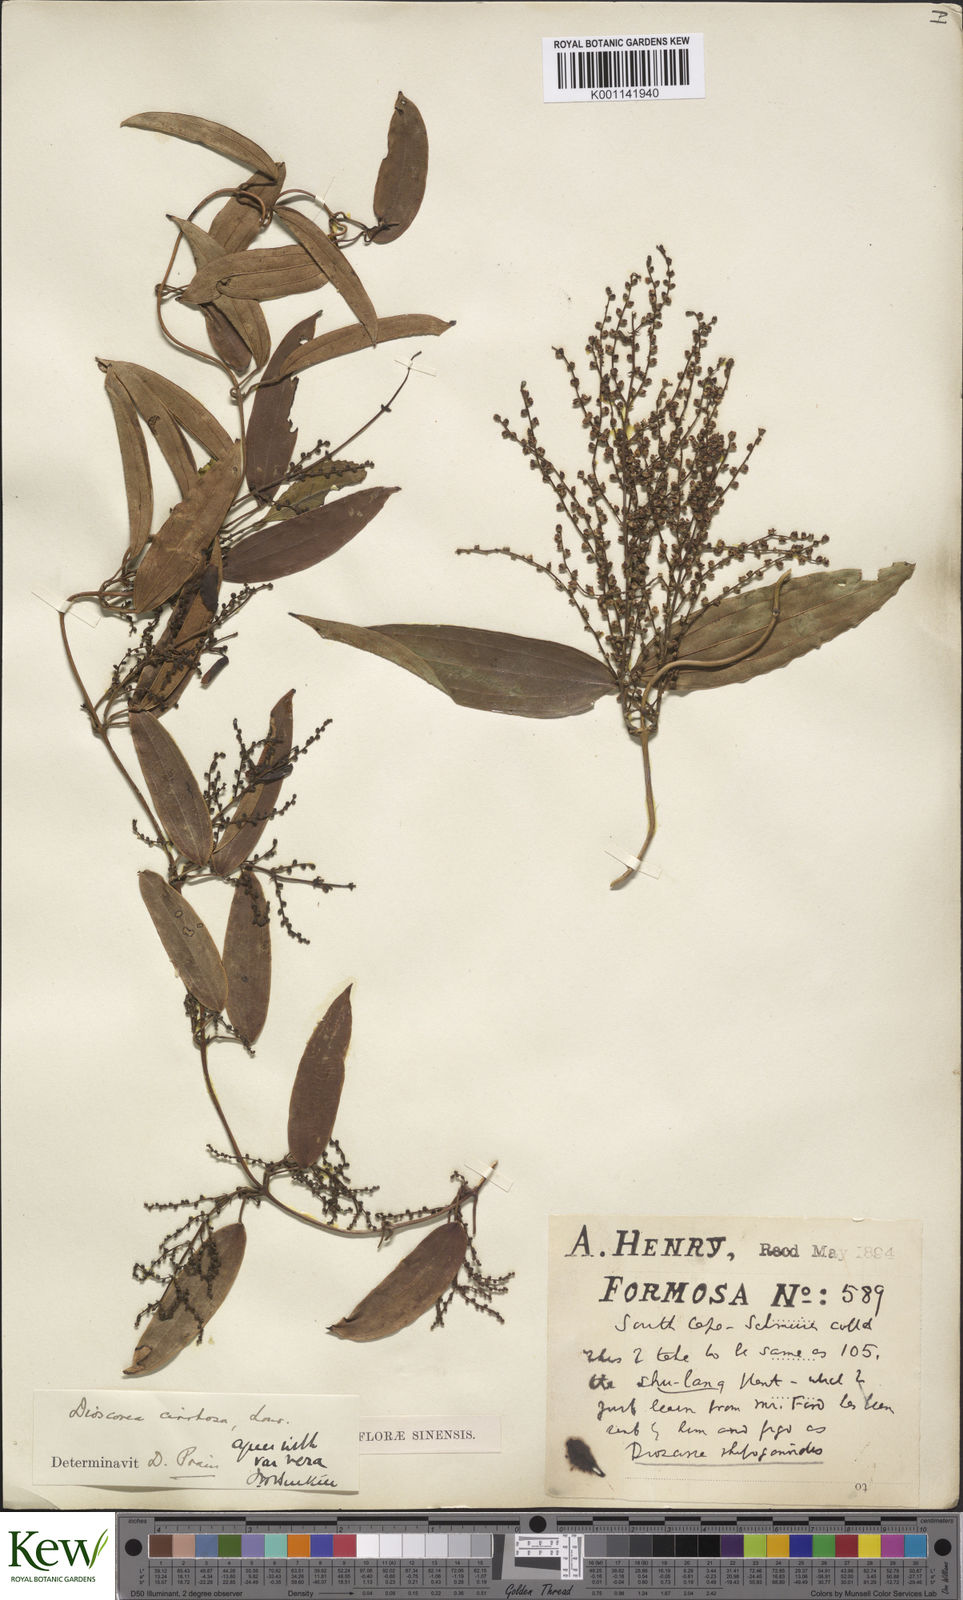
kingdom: Plantae
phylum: Tracheophyta
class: Liliopsida
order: Dioscoreales
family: Dioscoreaceae
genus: Dioscorea
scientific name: Dioscorea cirrhosa
